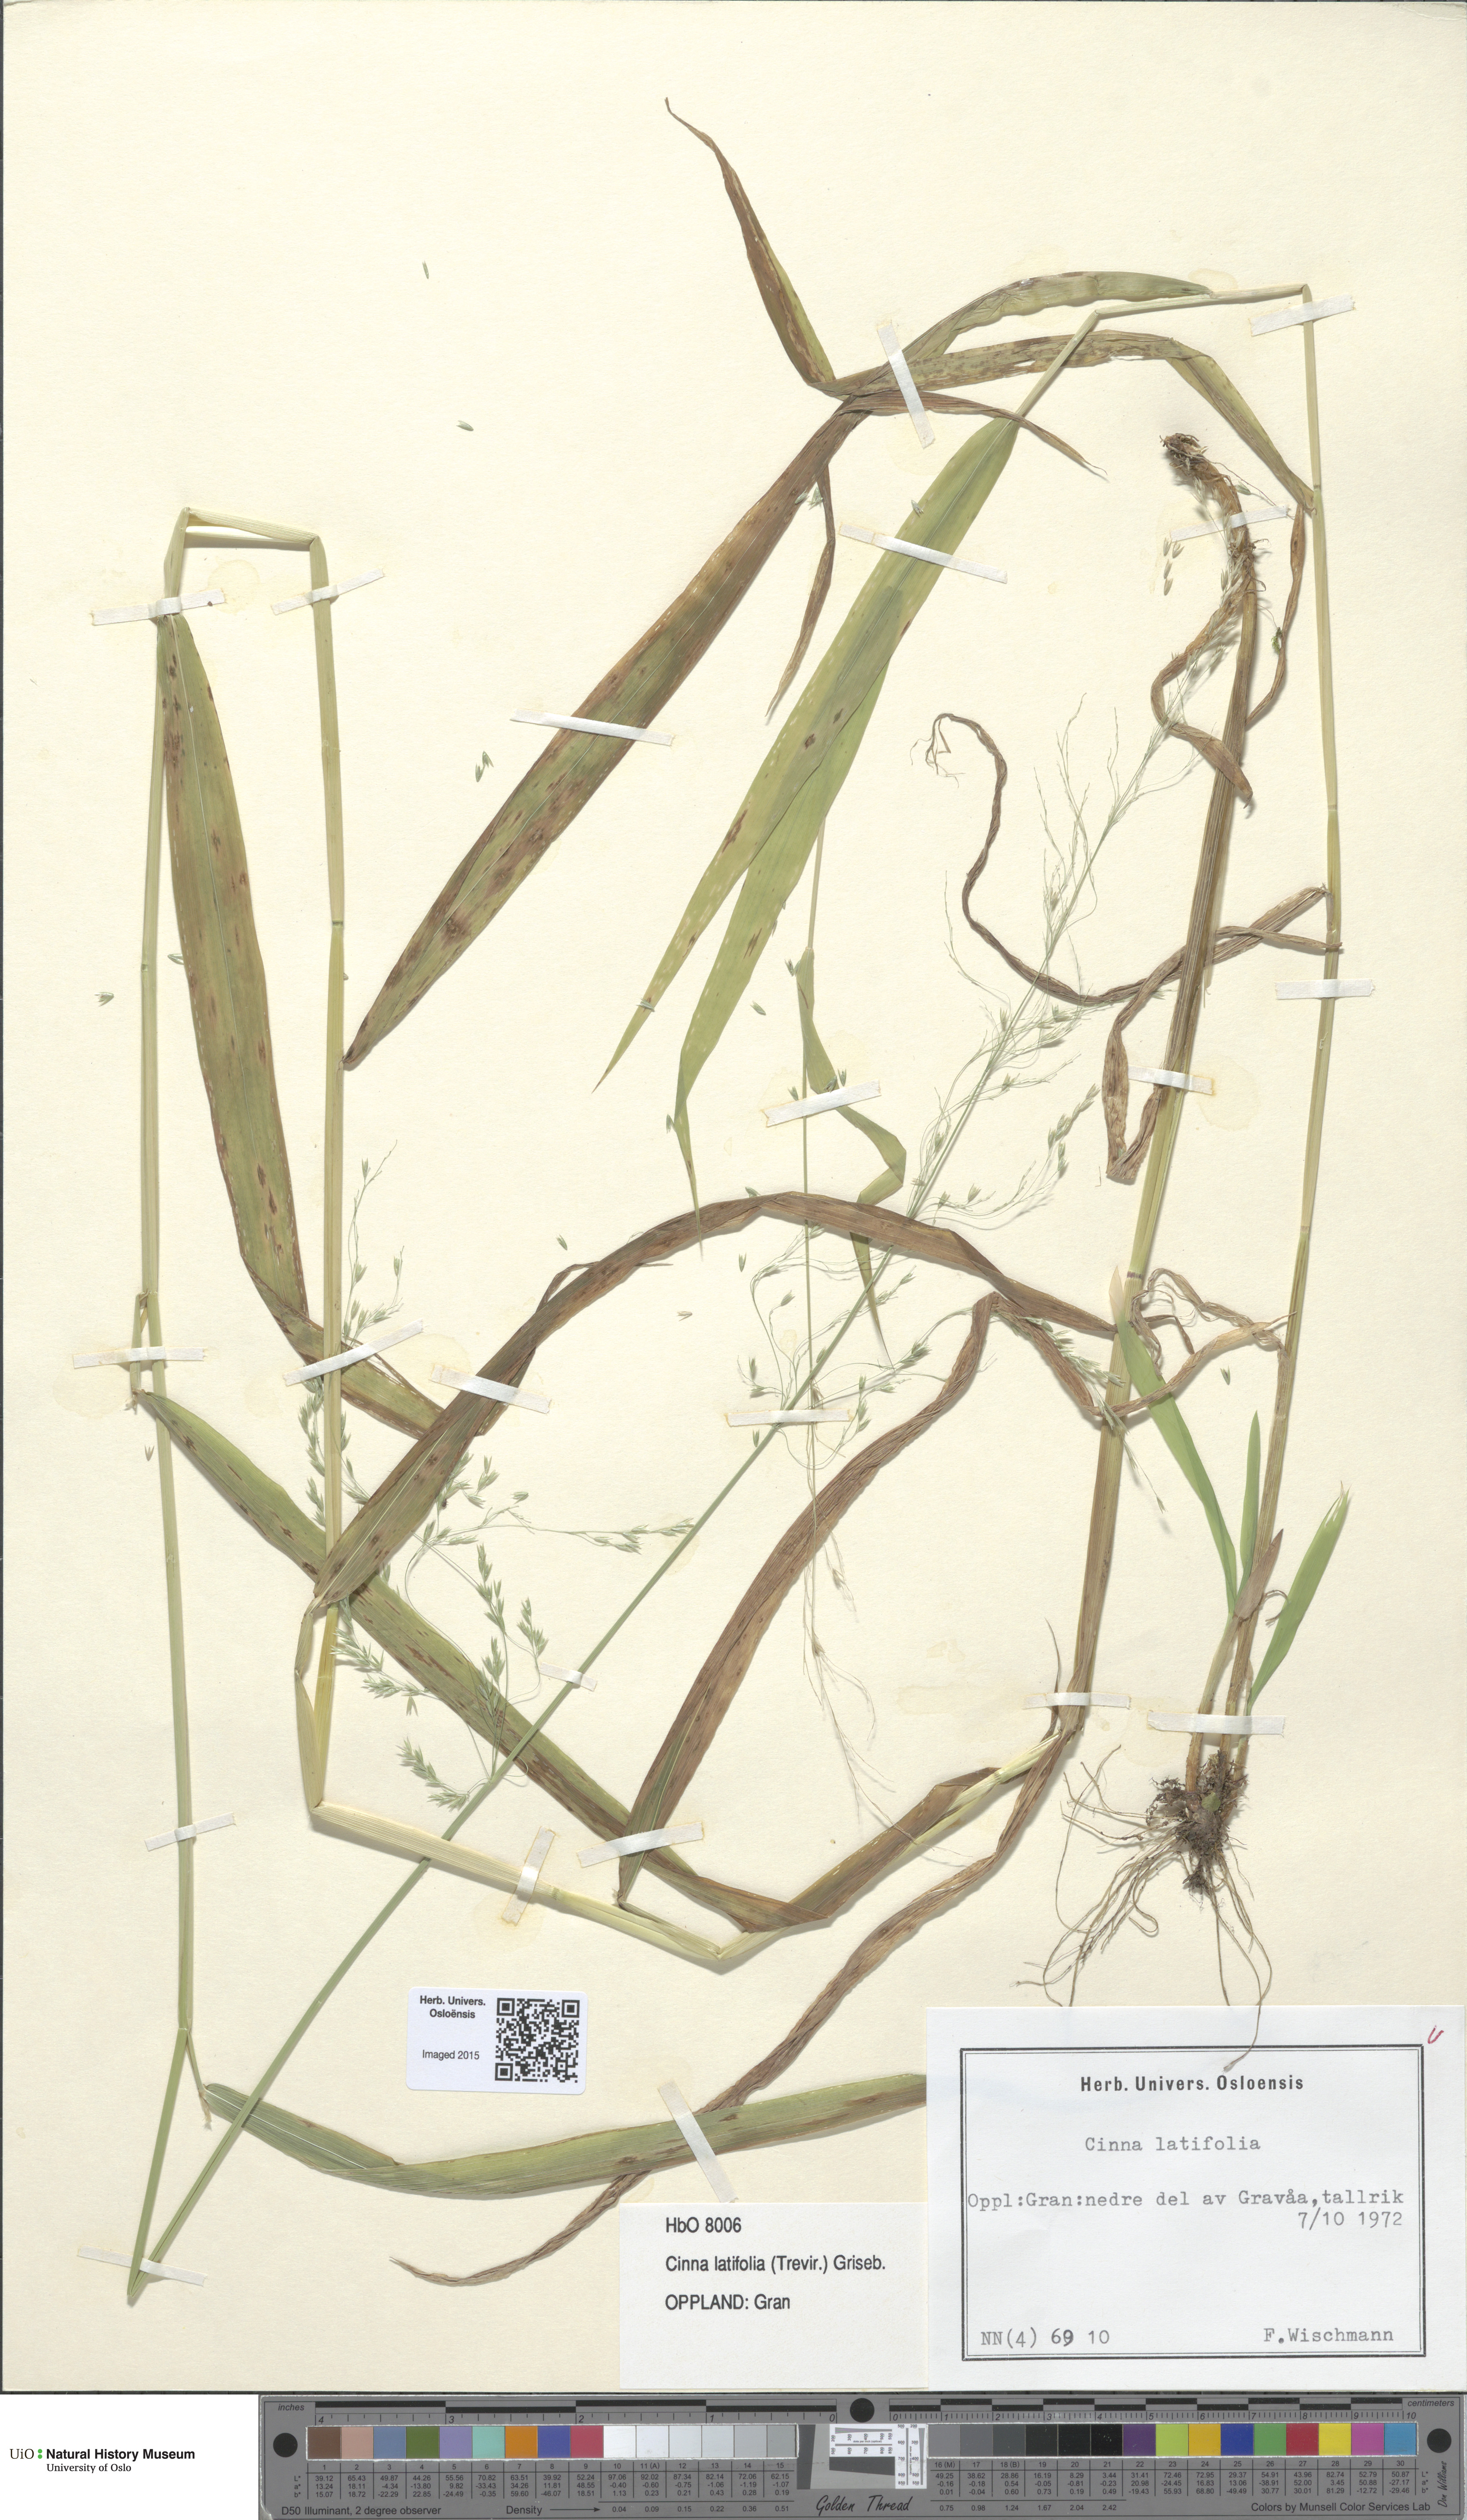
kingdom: Plantae
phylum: Tracheophyta
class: Liliopsida
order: Poales
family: Poaceae
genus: Cinna
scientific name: Cinna latifolia
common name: Drooping woodreed
